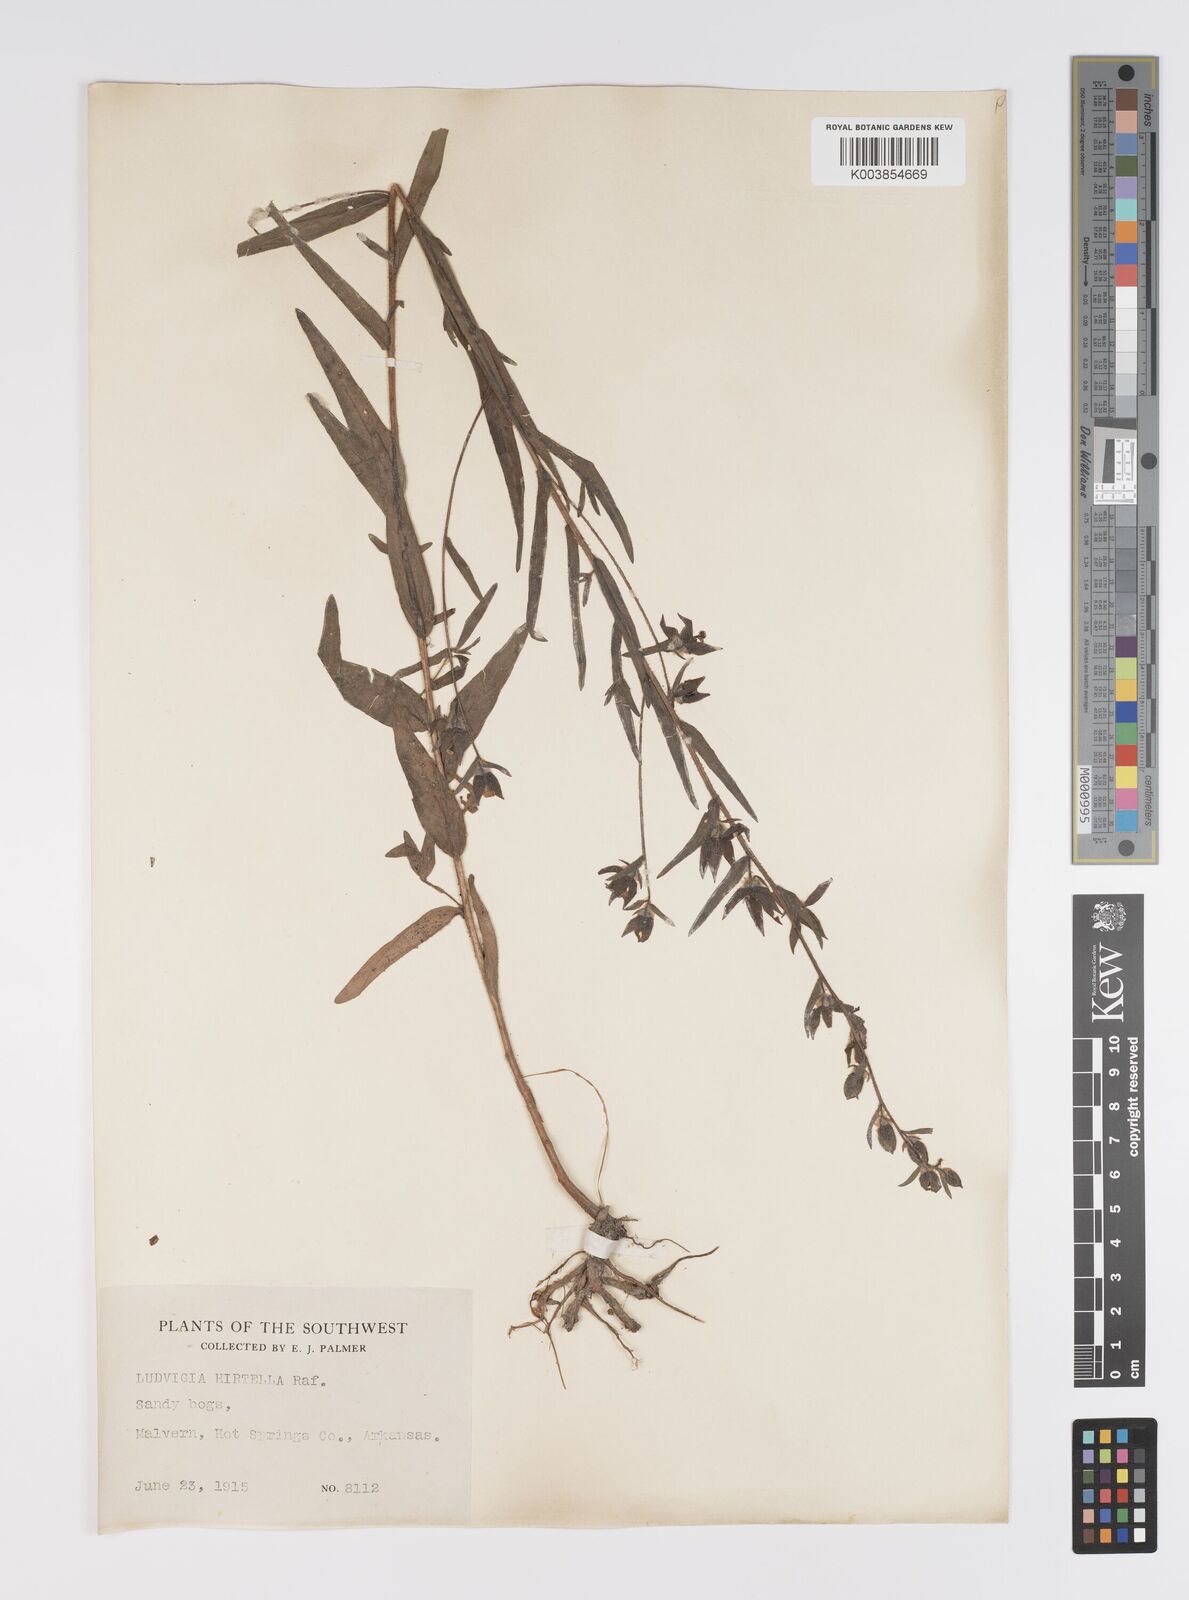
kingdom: Plantae
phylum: Tracheophyta
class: Magnoliopsida
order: Myrtales
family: Onagraceae
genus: Ludwigia
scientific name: Ludwigia hirtella
